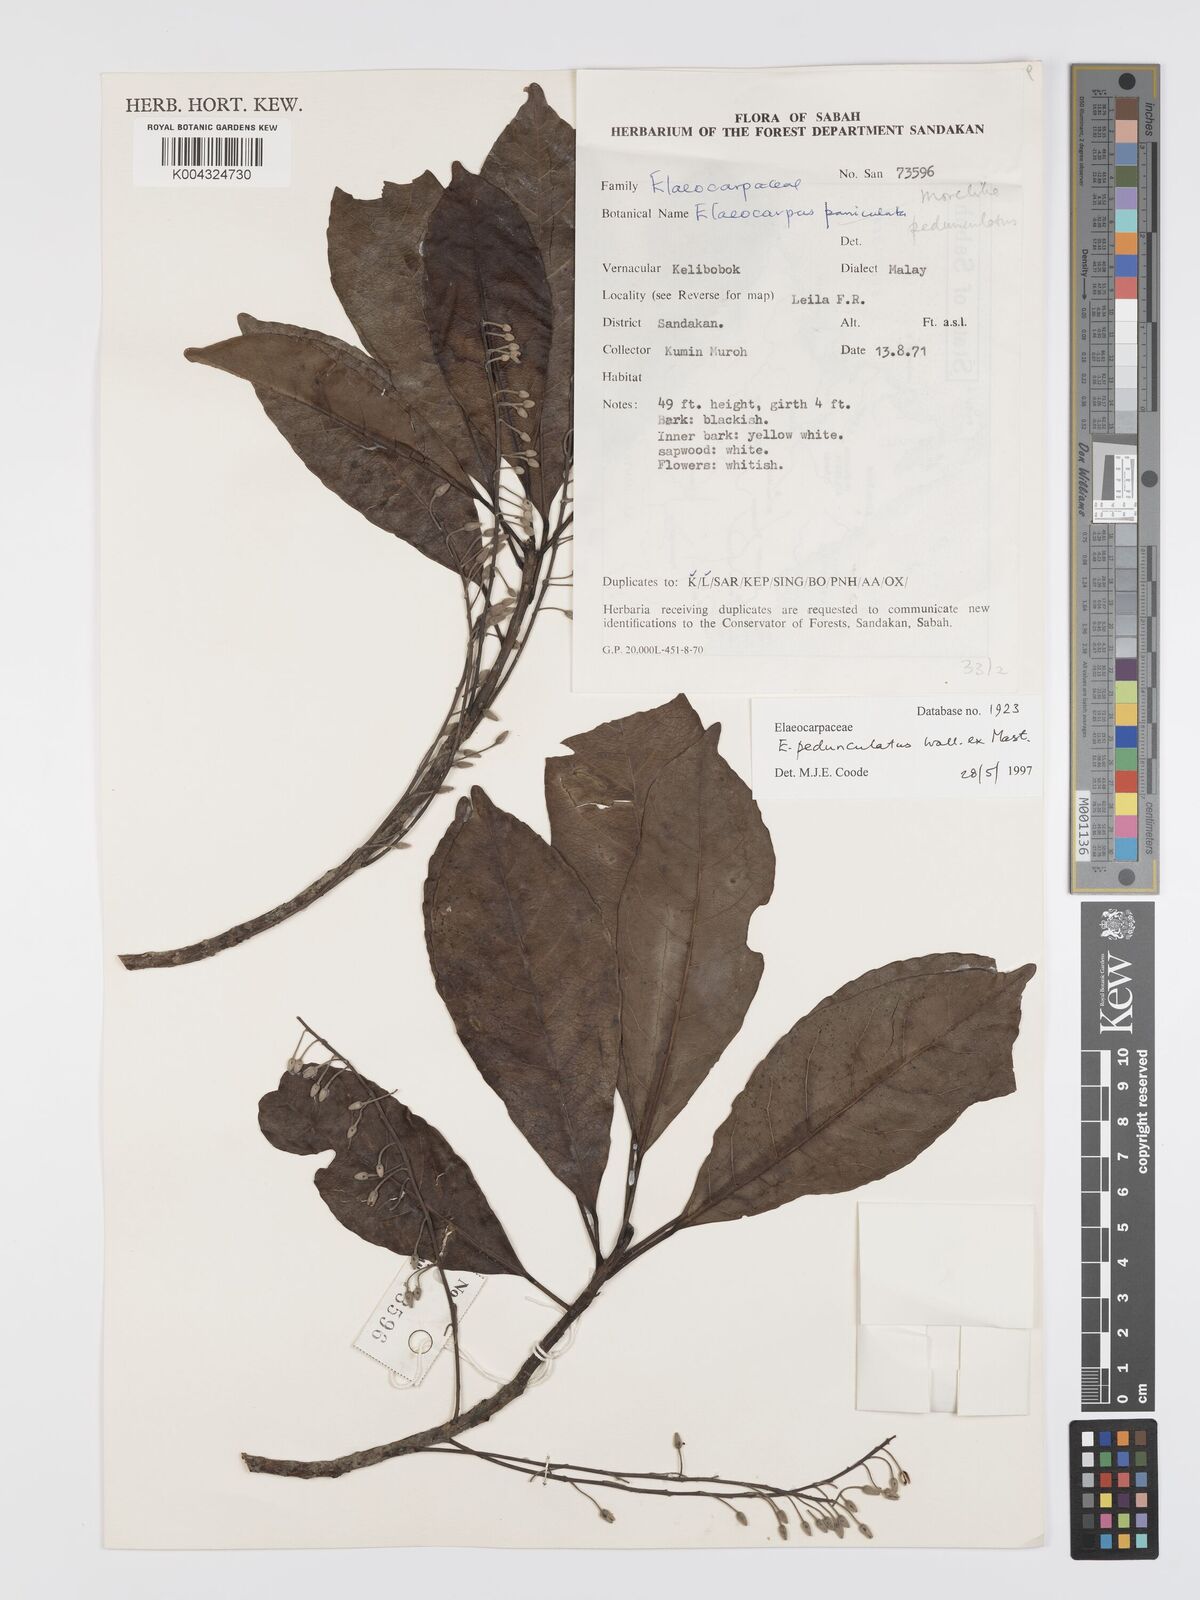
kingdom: Plantae
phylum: Tracheophyta
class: Magnoliopsida
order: Oxalidales
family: Elaeocarpaceae
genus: Elaeocarpus
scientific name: Elaeocarpus pedunculatus
